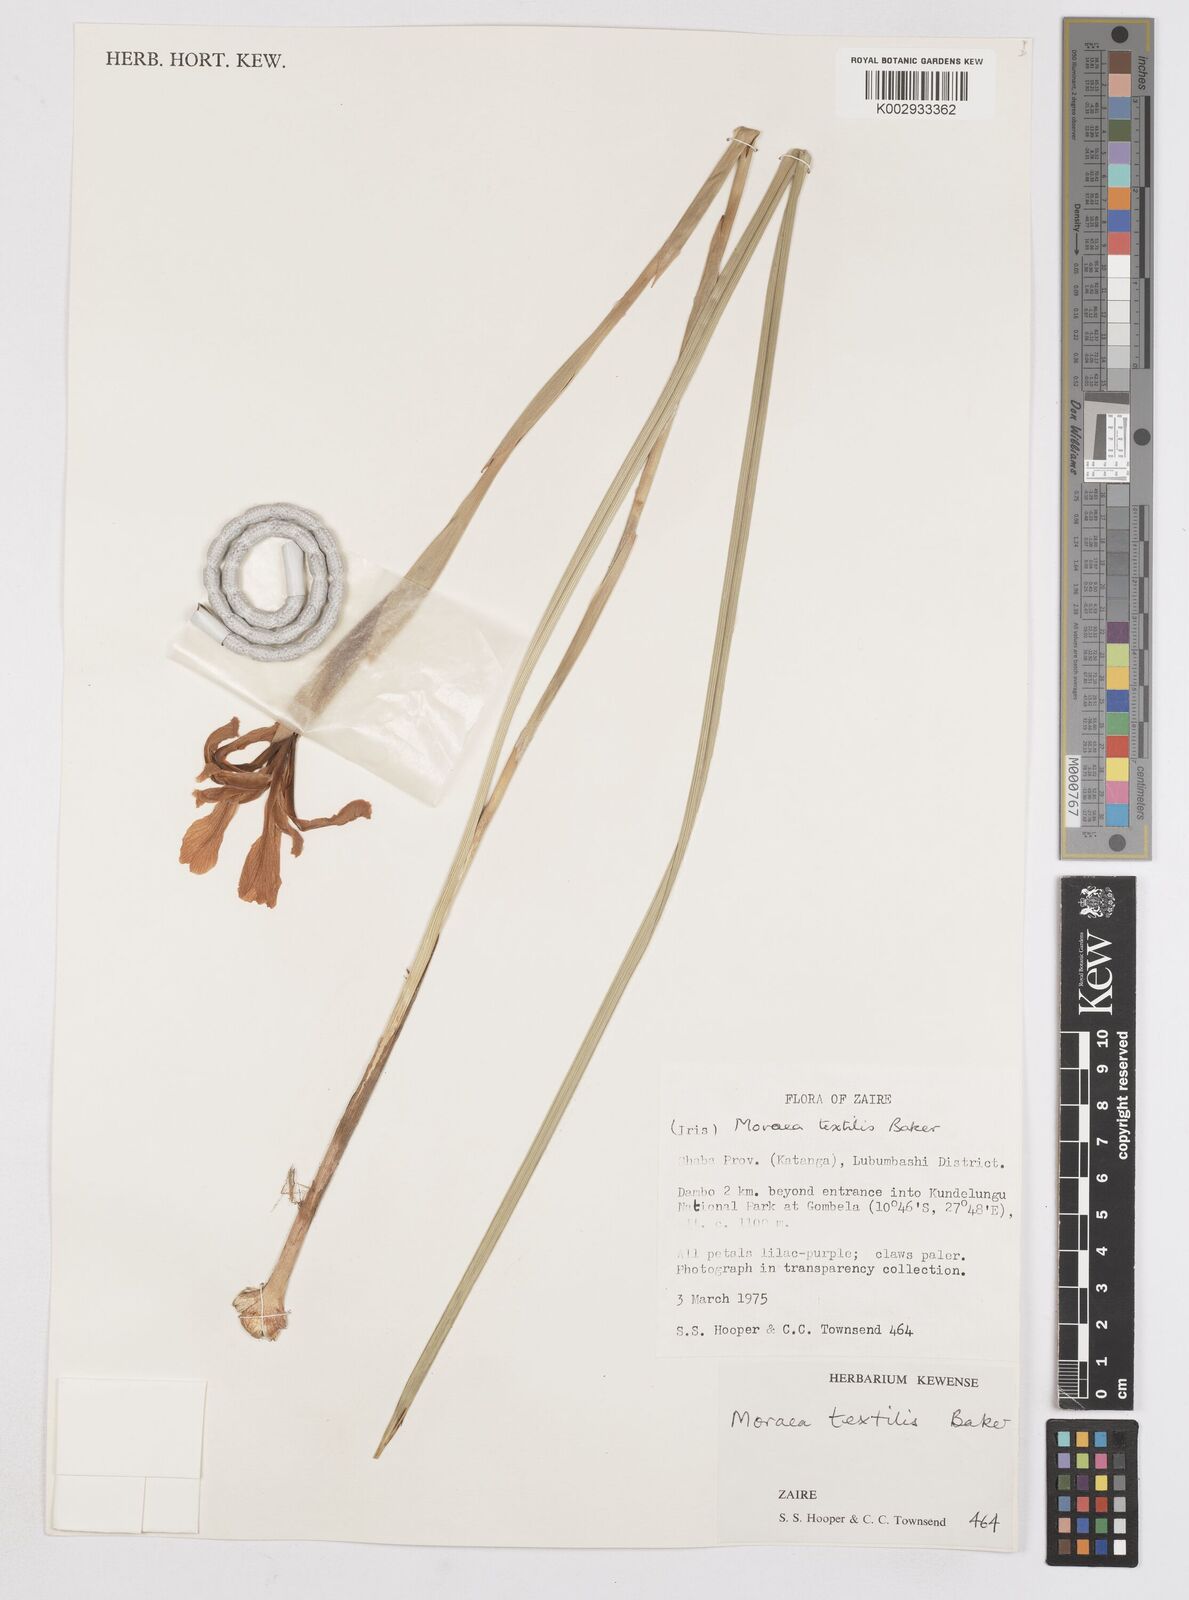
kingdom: Plantae
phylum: Tracheophyta
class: Liliopsida
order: Asparagales
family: Iridaceae
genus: Moraea
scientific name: Moraea ventricosa
